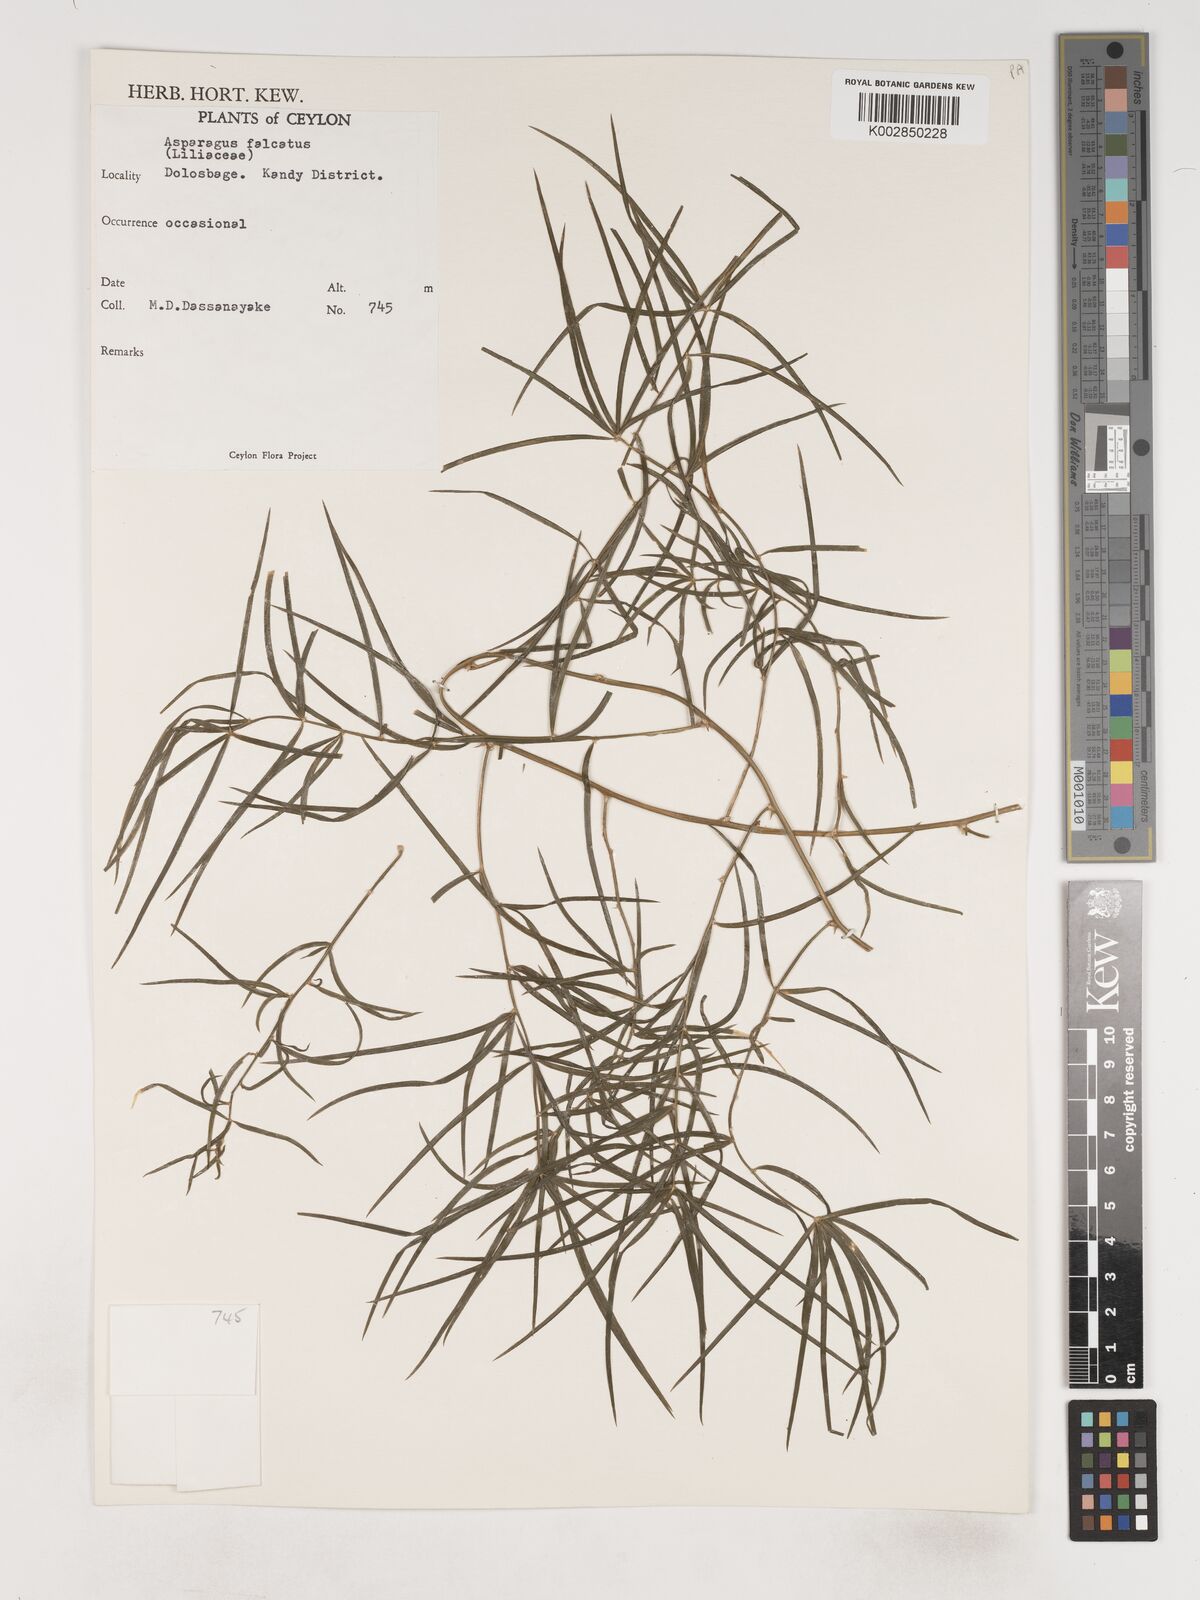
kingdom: Plantae
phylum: Tracheophyta
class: Liliopsida
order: Asparagales
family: Asparagaceae
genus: Asparagus
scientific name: Asparagus falcatus
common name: Asparagus
